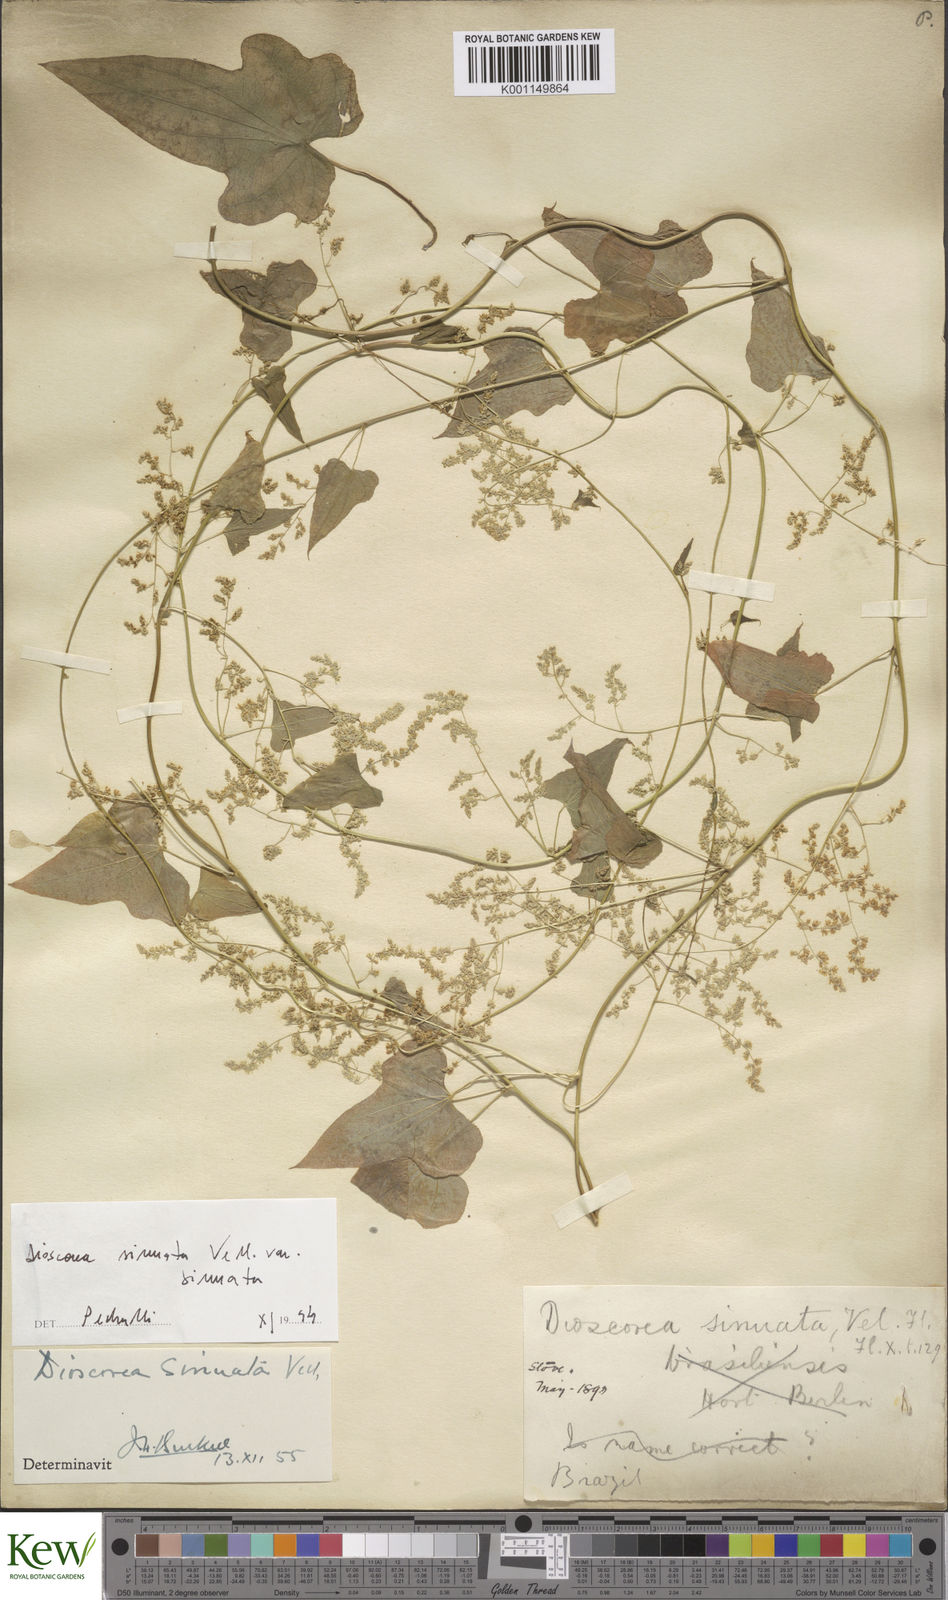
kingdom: Plantae
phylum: Tracheophyta
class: Liliopsida
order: Dioscoreales
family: Dioscoreaceae
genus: Dioscorea
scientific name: Dioscorea sinuata
